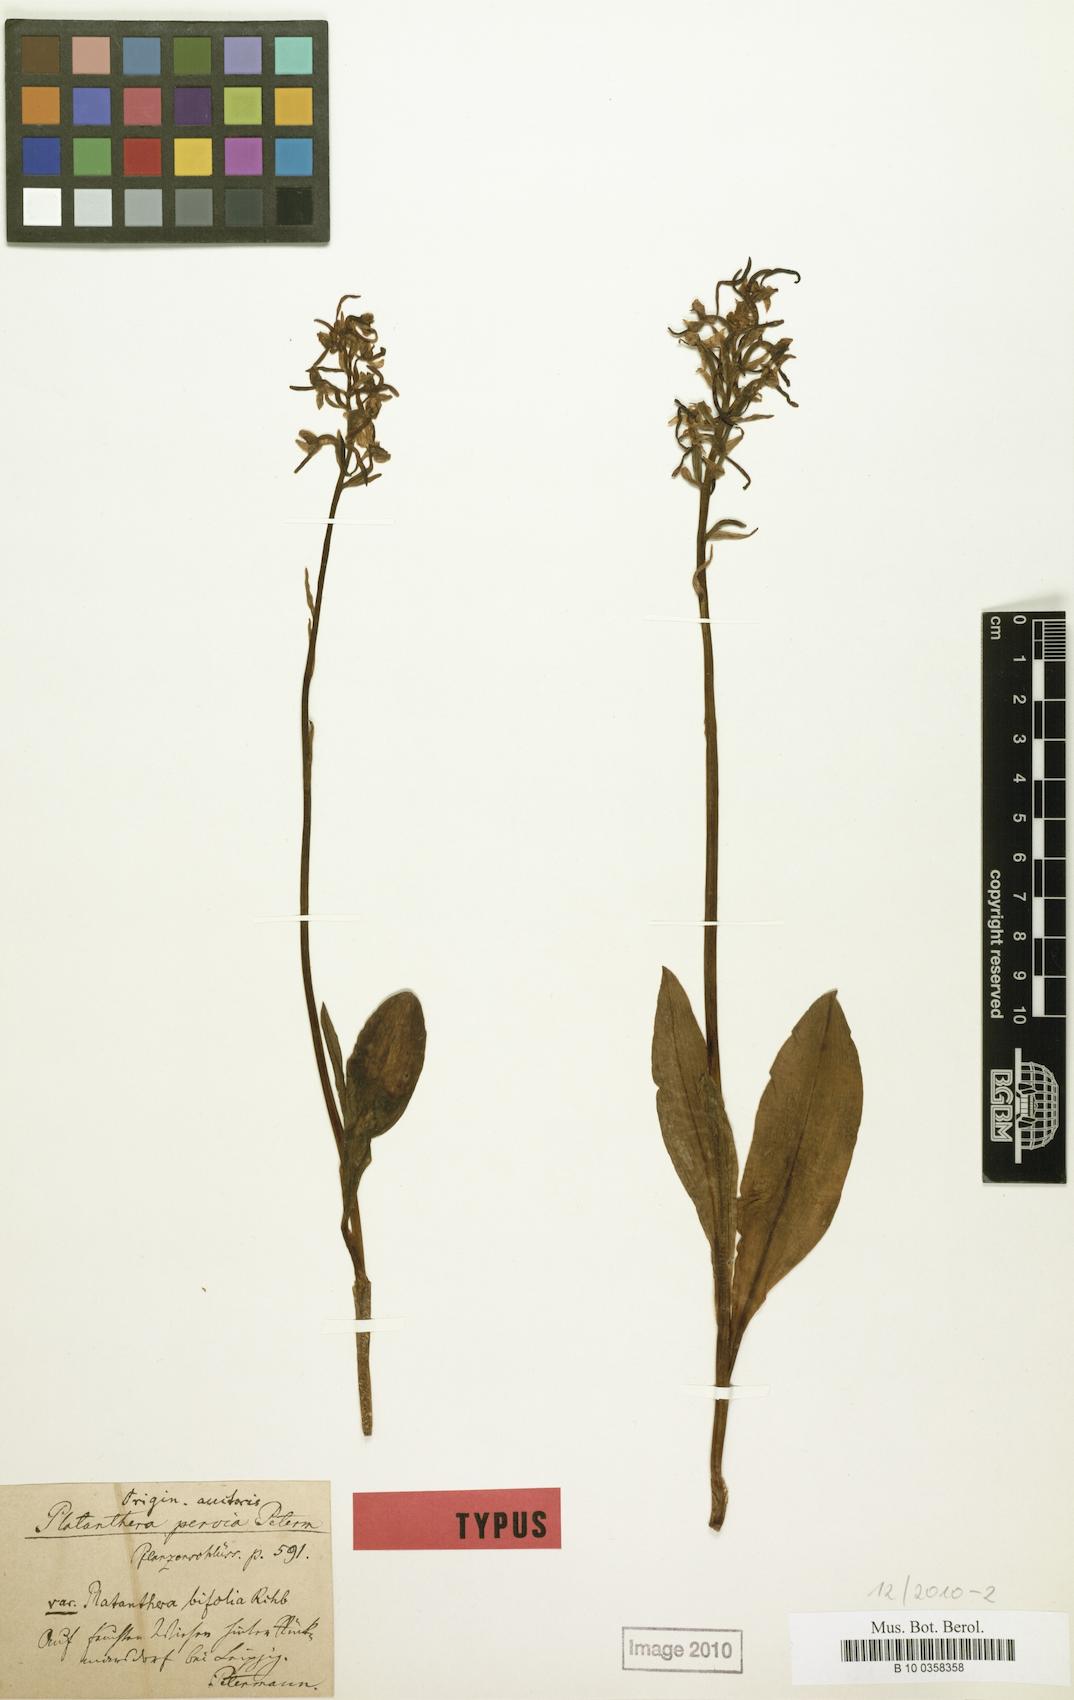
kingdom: Plantae
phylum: Tracheophyta
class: Liliopsida
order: Asparagales
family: Orchidaceae
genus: Platanthera
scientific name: Platanthera bifolia
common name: Lesser butterfly-orchid
